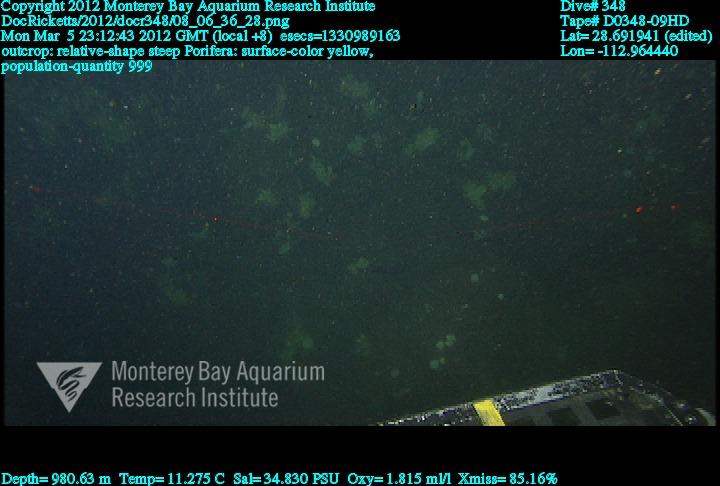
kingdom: Animalia
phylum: Porifera
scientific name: Porifera
